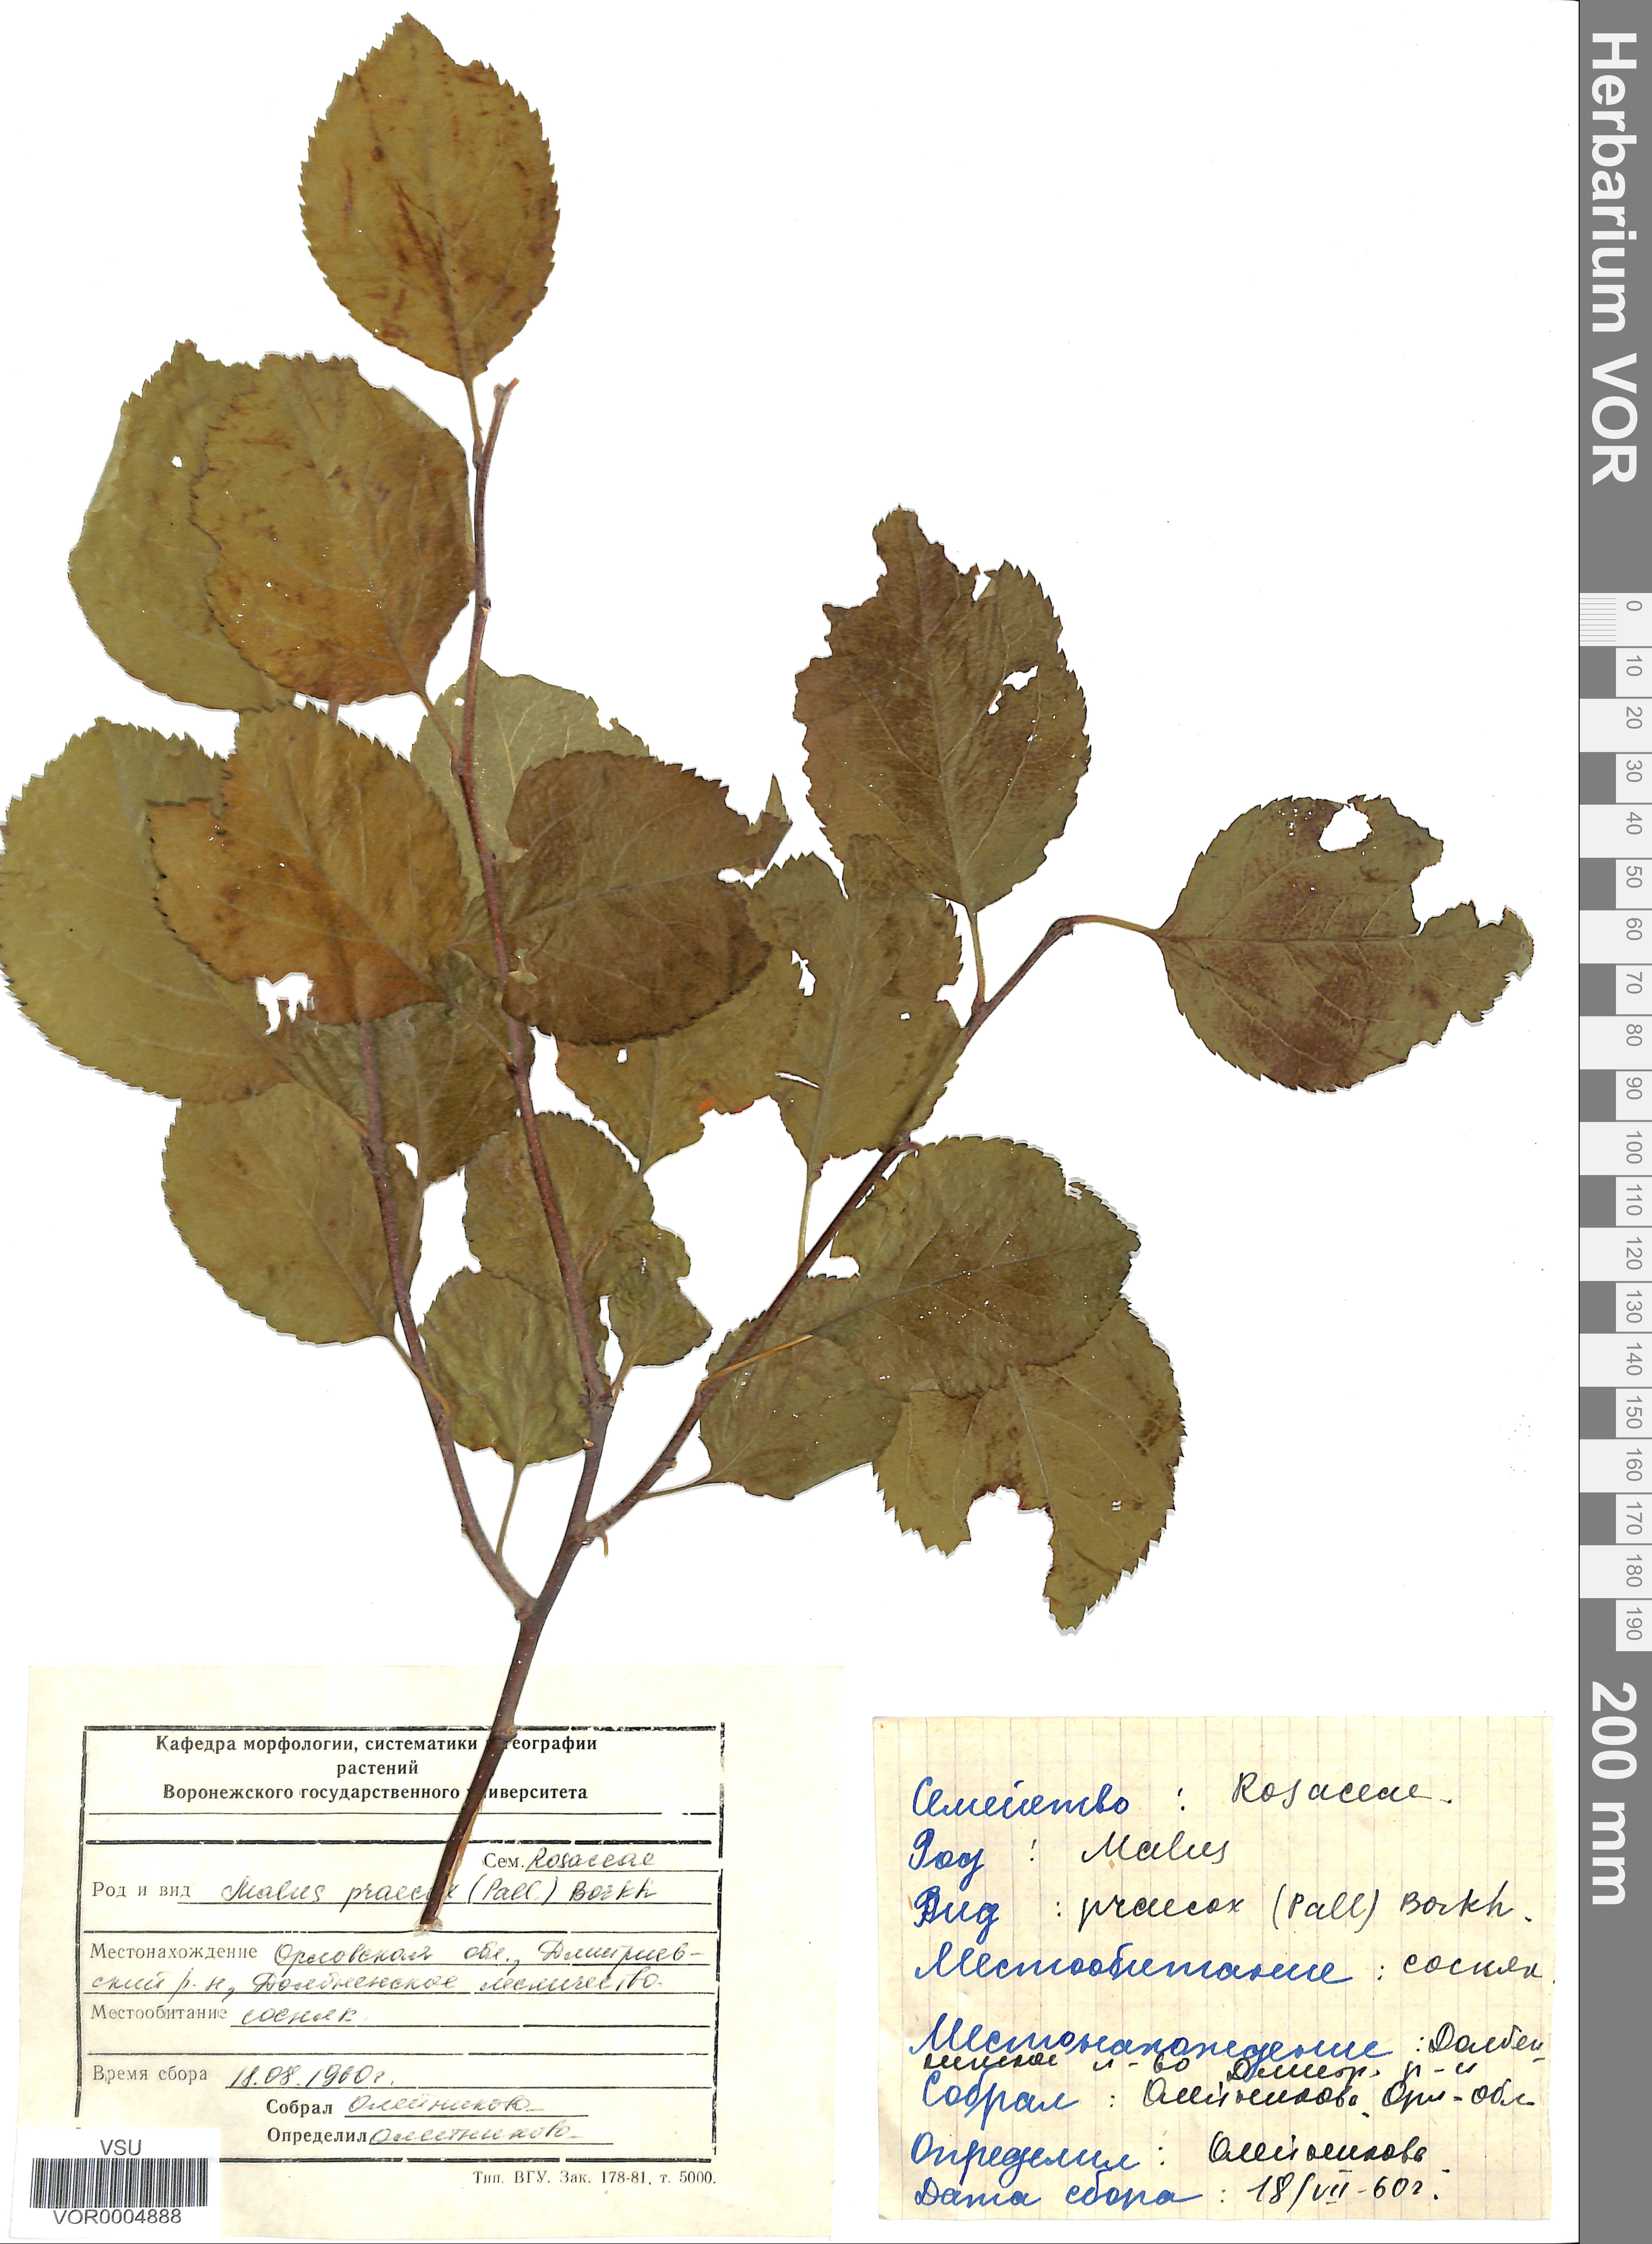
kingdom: Plantae
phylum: Tracheophyta
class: Magnoliopsida
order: Rosales
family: Rosaceae
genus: Malus
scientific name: Malus domestica
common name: Apple
